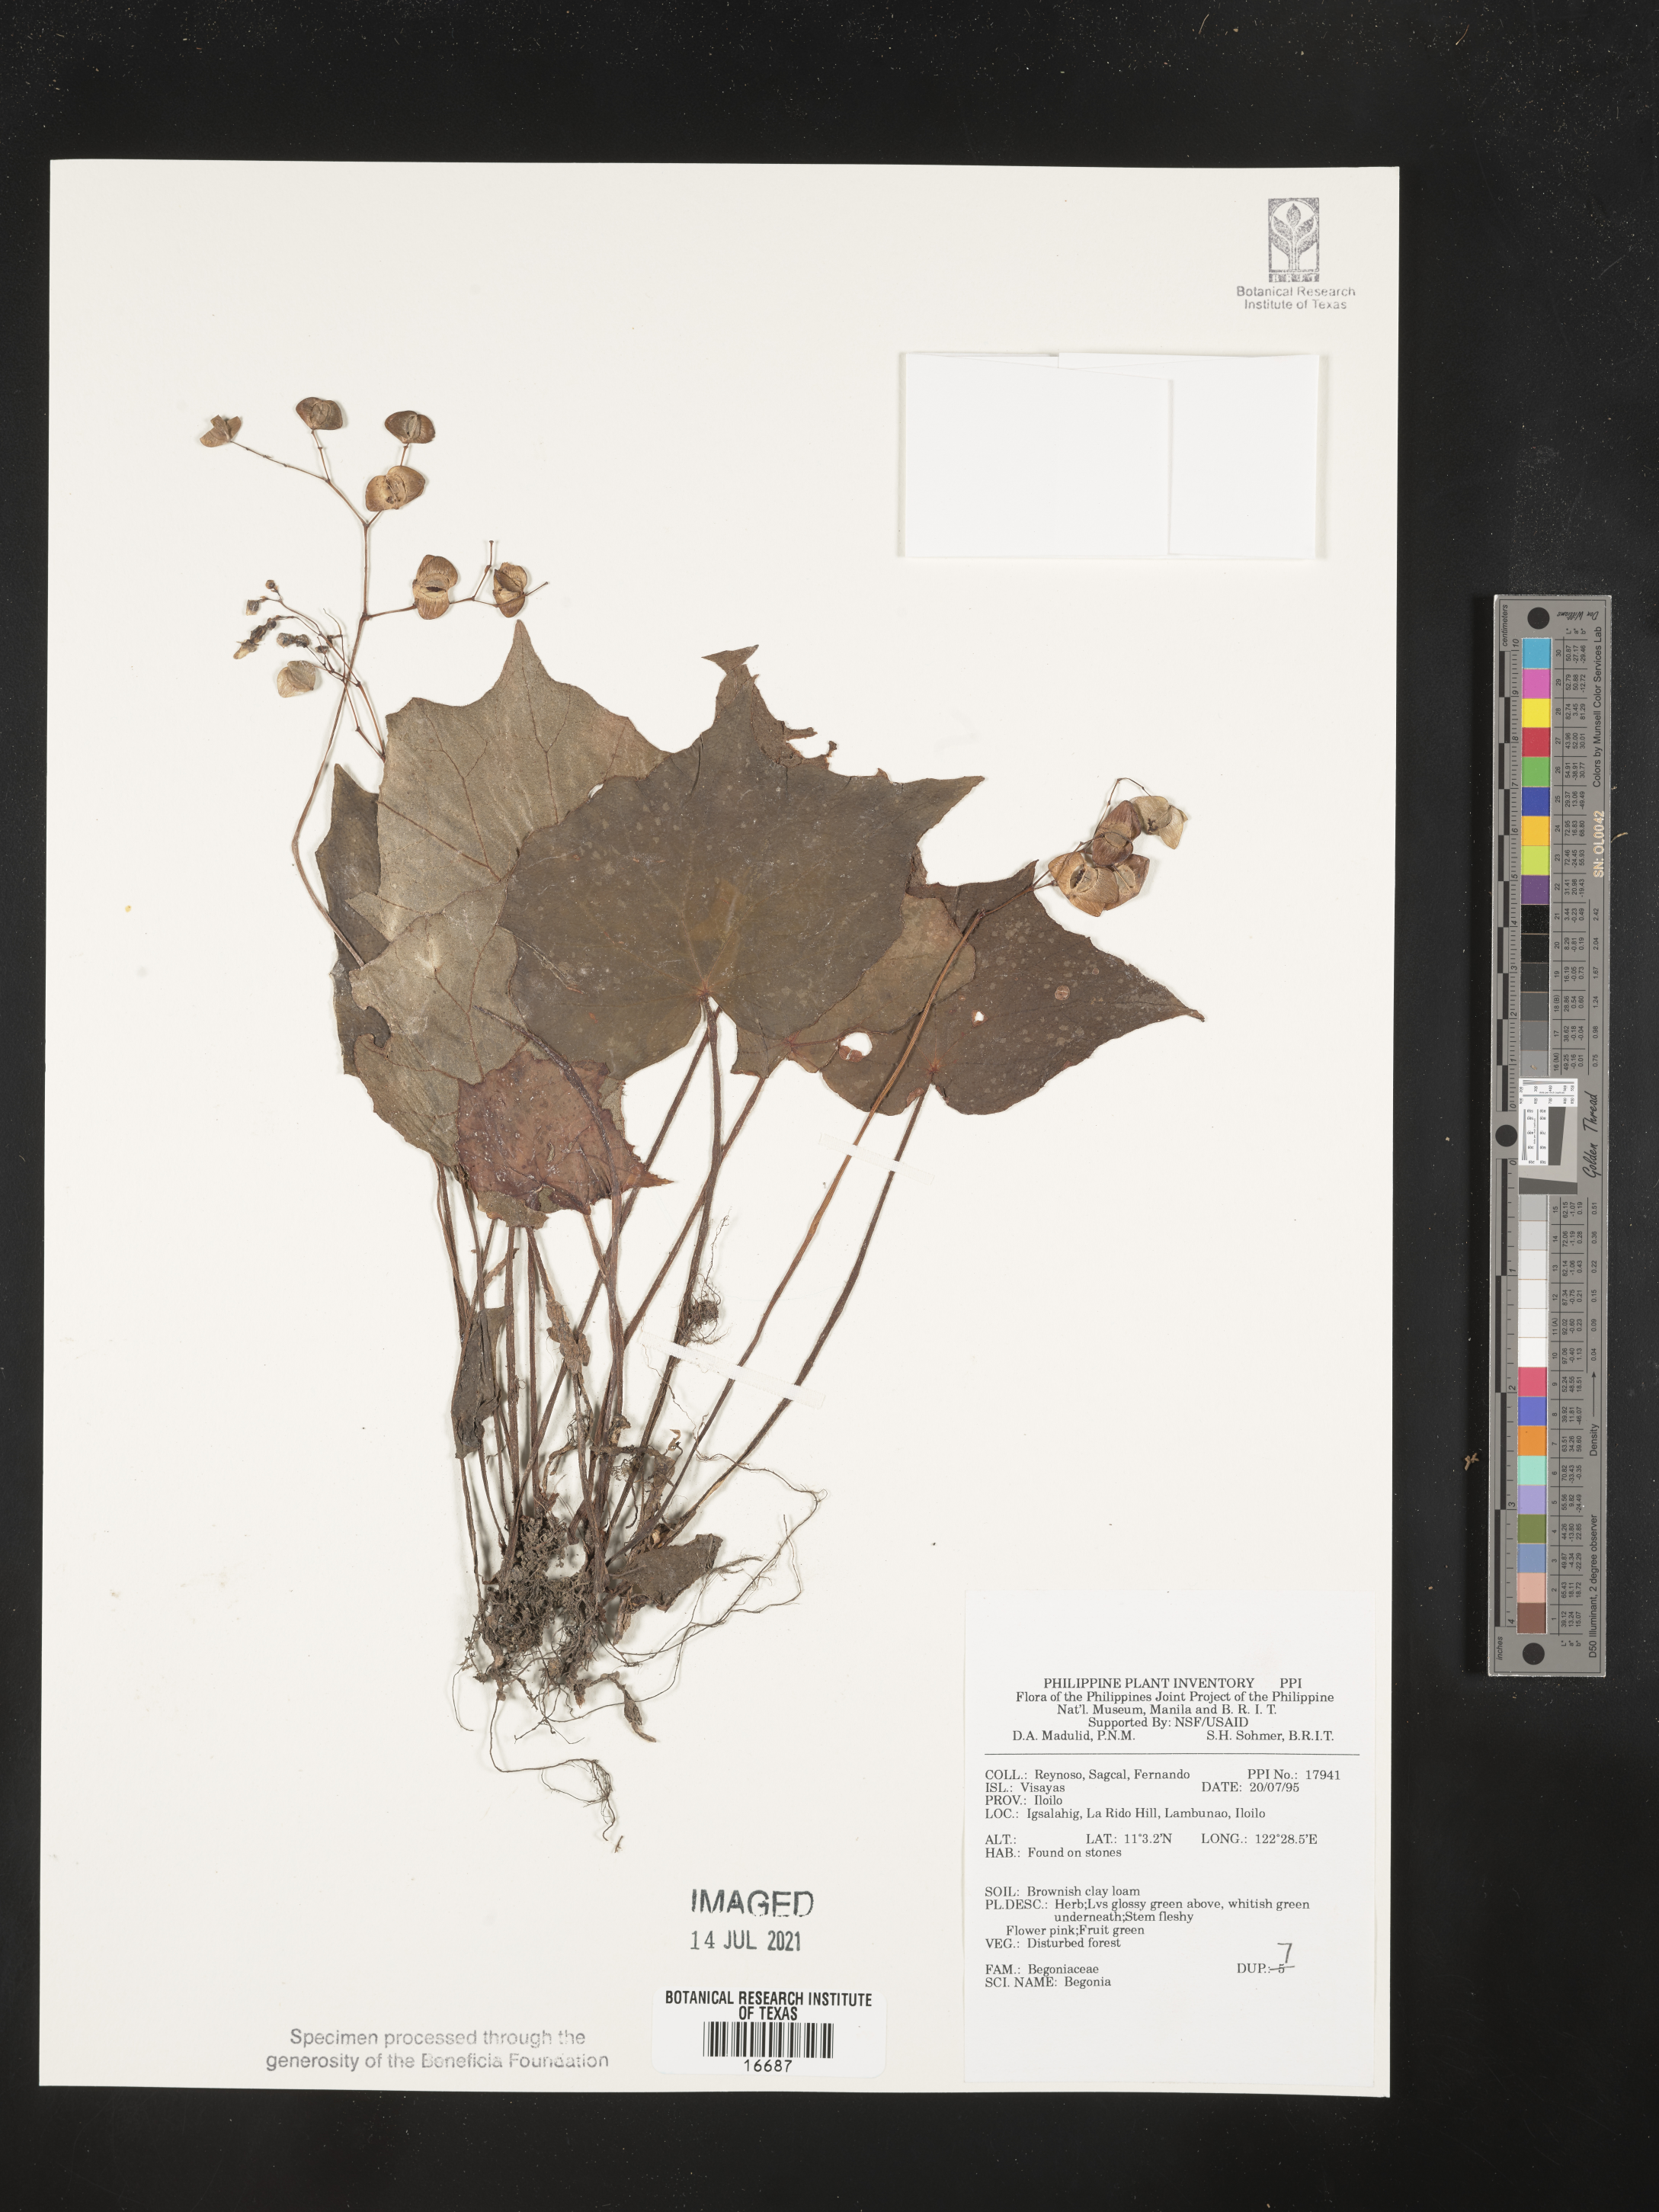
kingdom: Plantae
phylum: Tracheophyta
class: Magnoliopsida
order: Cucurbitales
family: Begoniaceae
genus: Begonia
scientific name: Begonia
